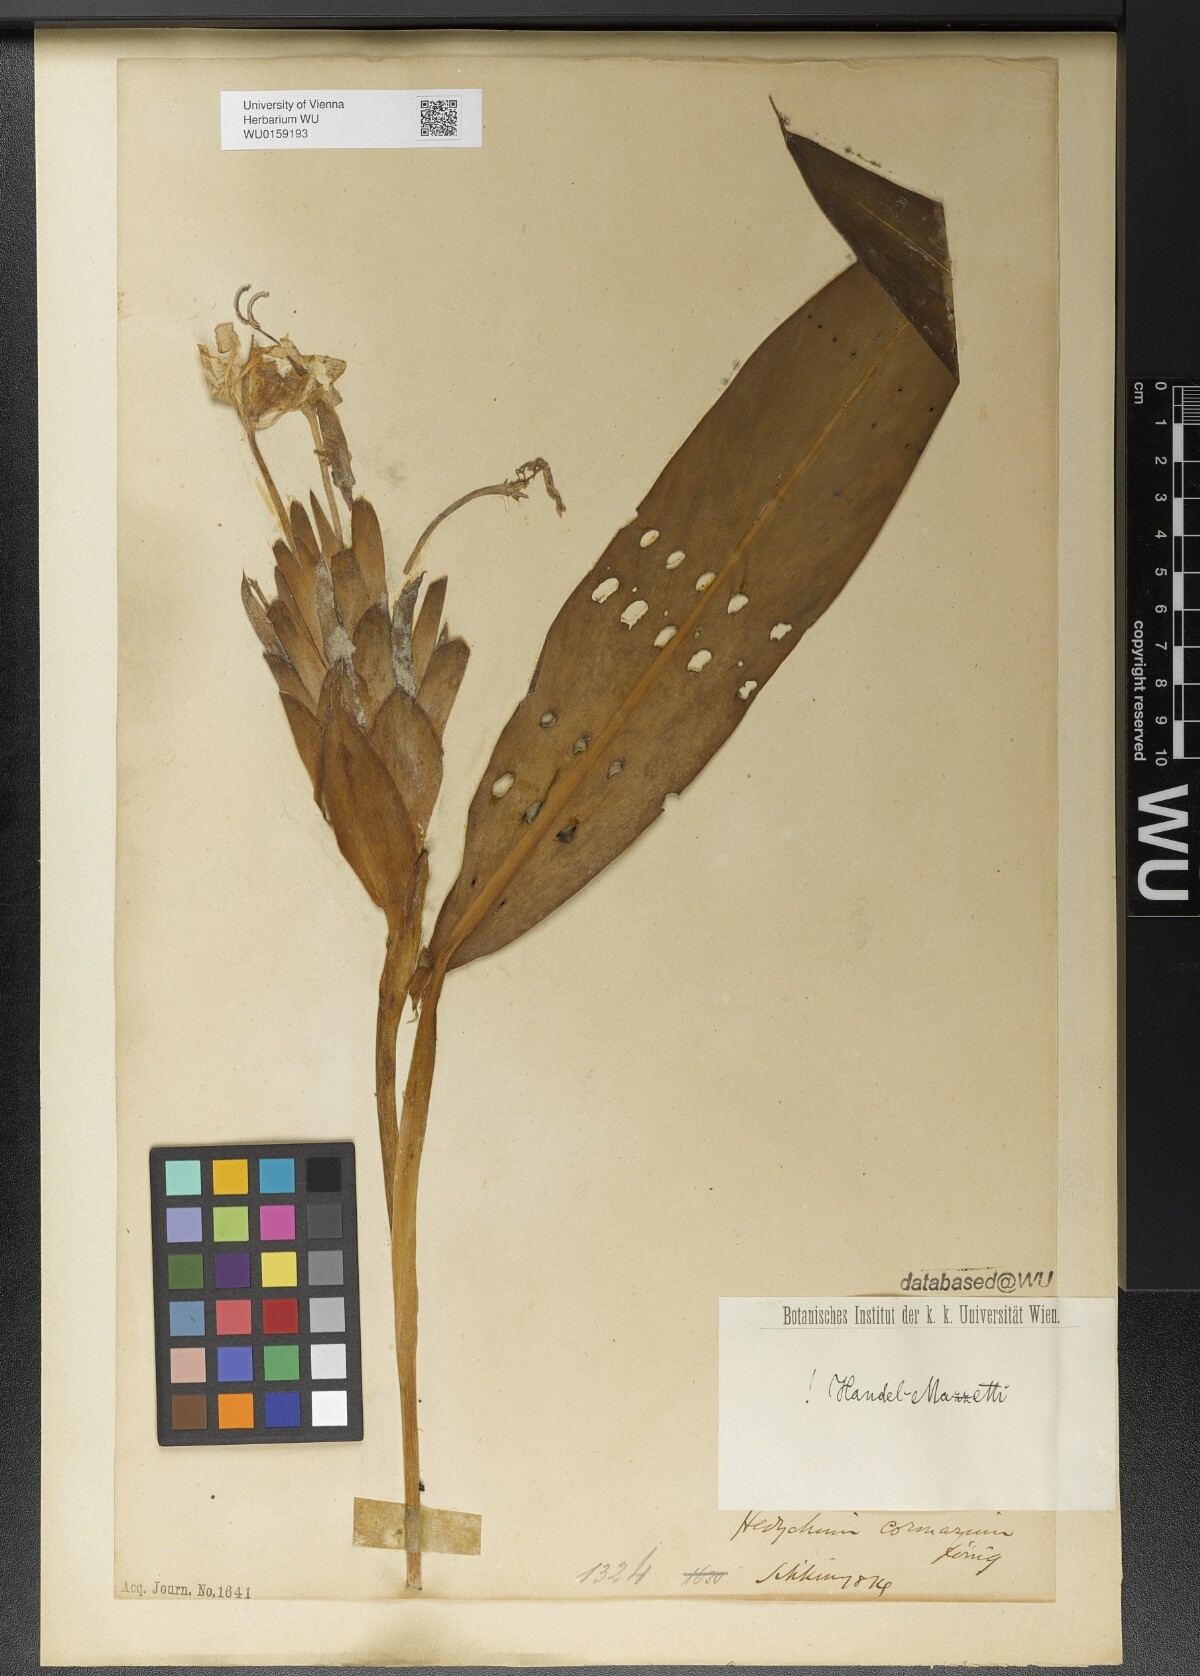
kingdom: Plantae
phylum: Tracheophyta
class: Liliopsida
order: Zingiberales
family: Zingiberaceae
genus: Hedychium
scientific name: Hedychium coronarium
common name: White garland-lily
